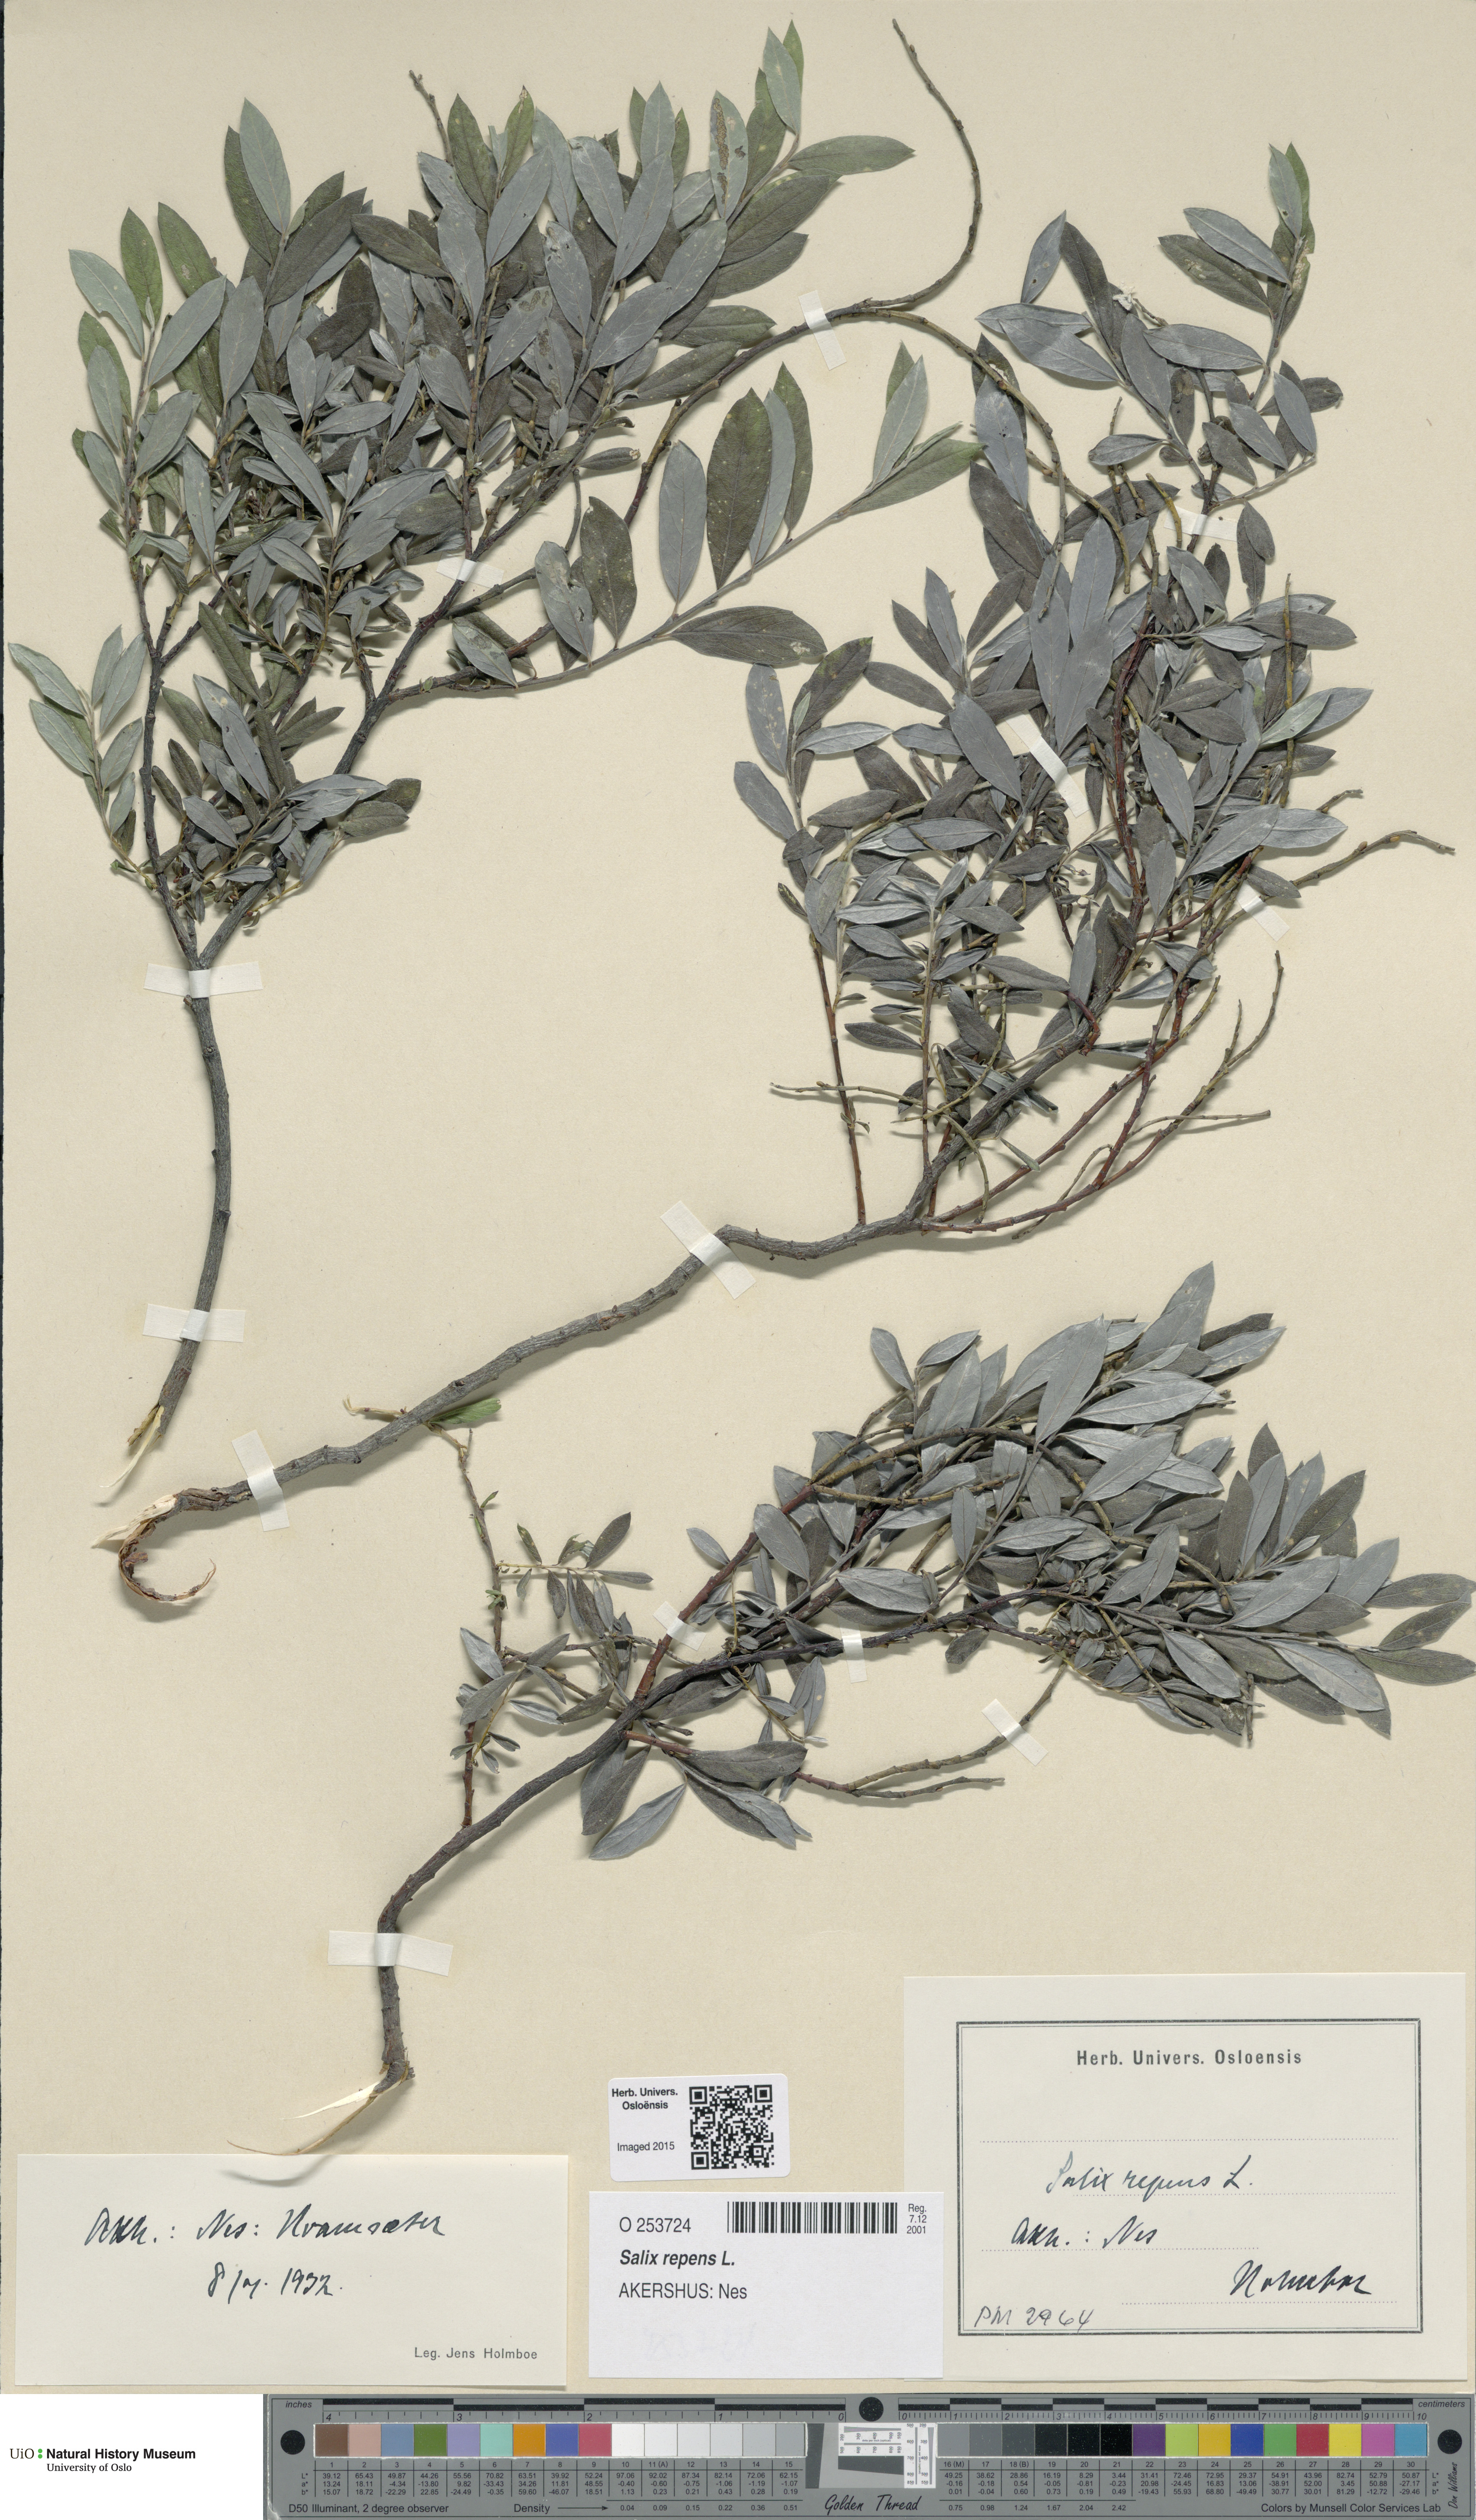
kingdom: Plantae
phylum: Tracheophyta
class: Magnoliopsida
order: Malpighiales
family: Salicaceae
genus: Salix
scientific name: Salix repens
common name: Creeping willow
